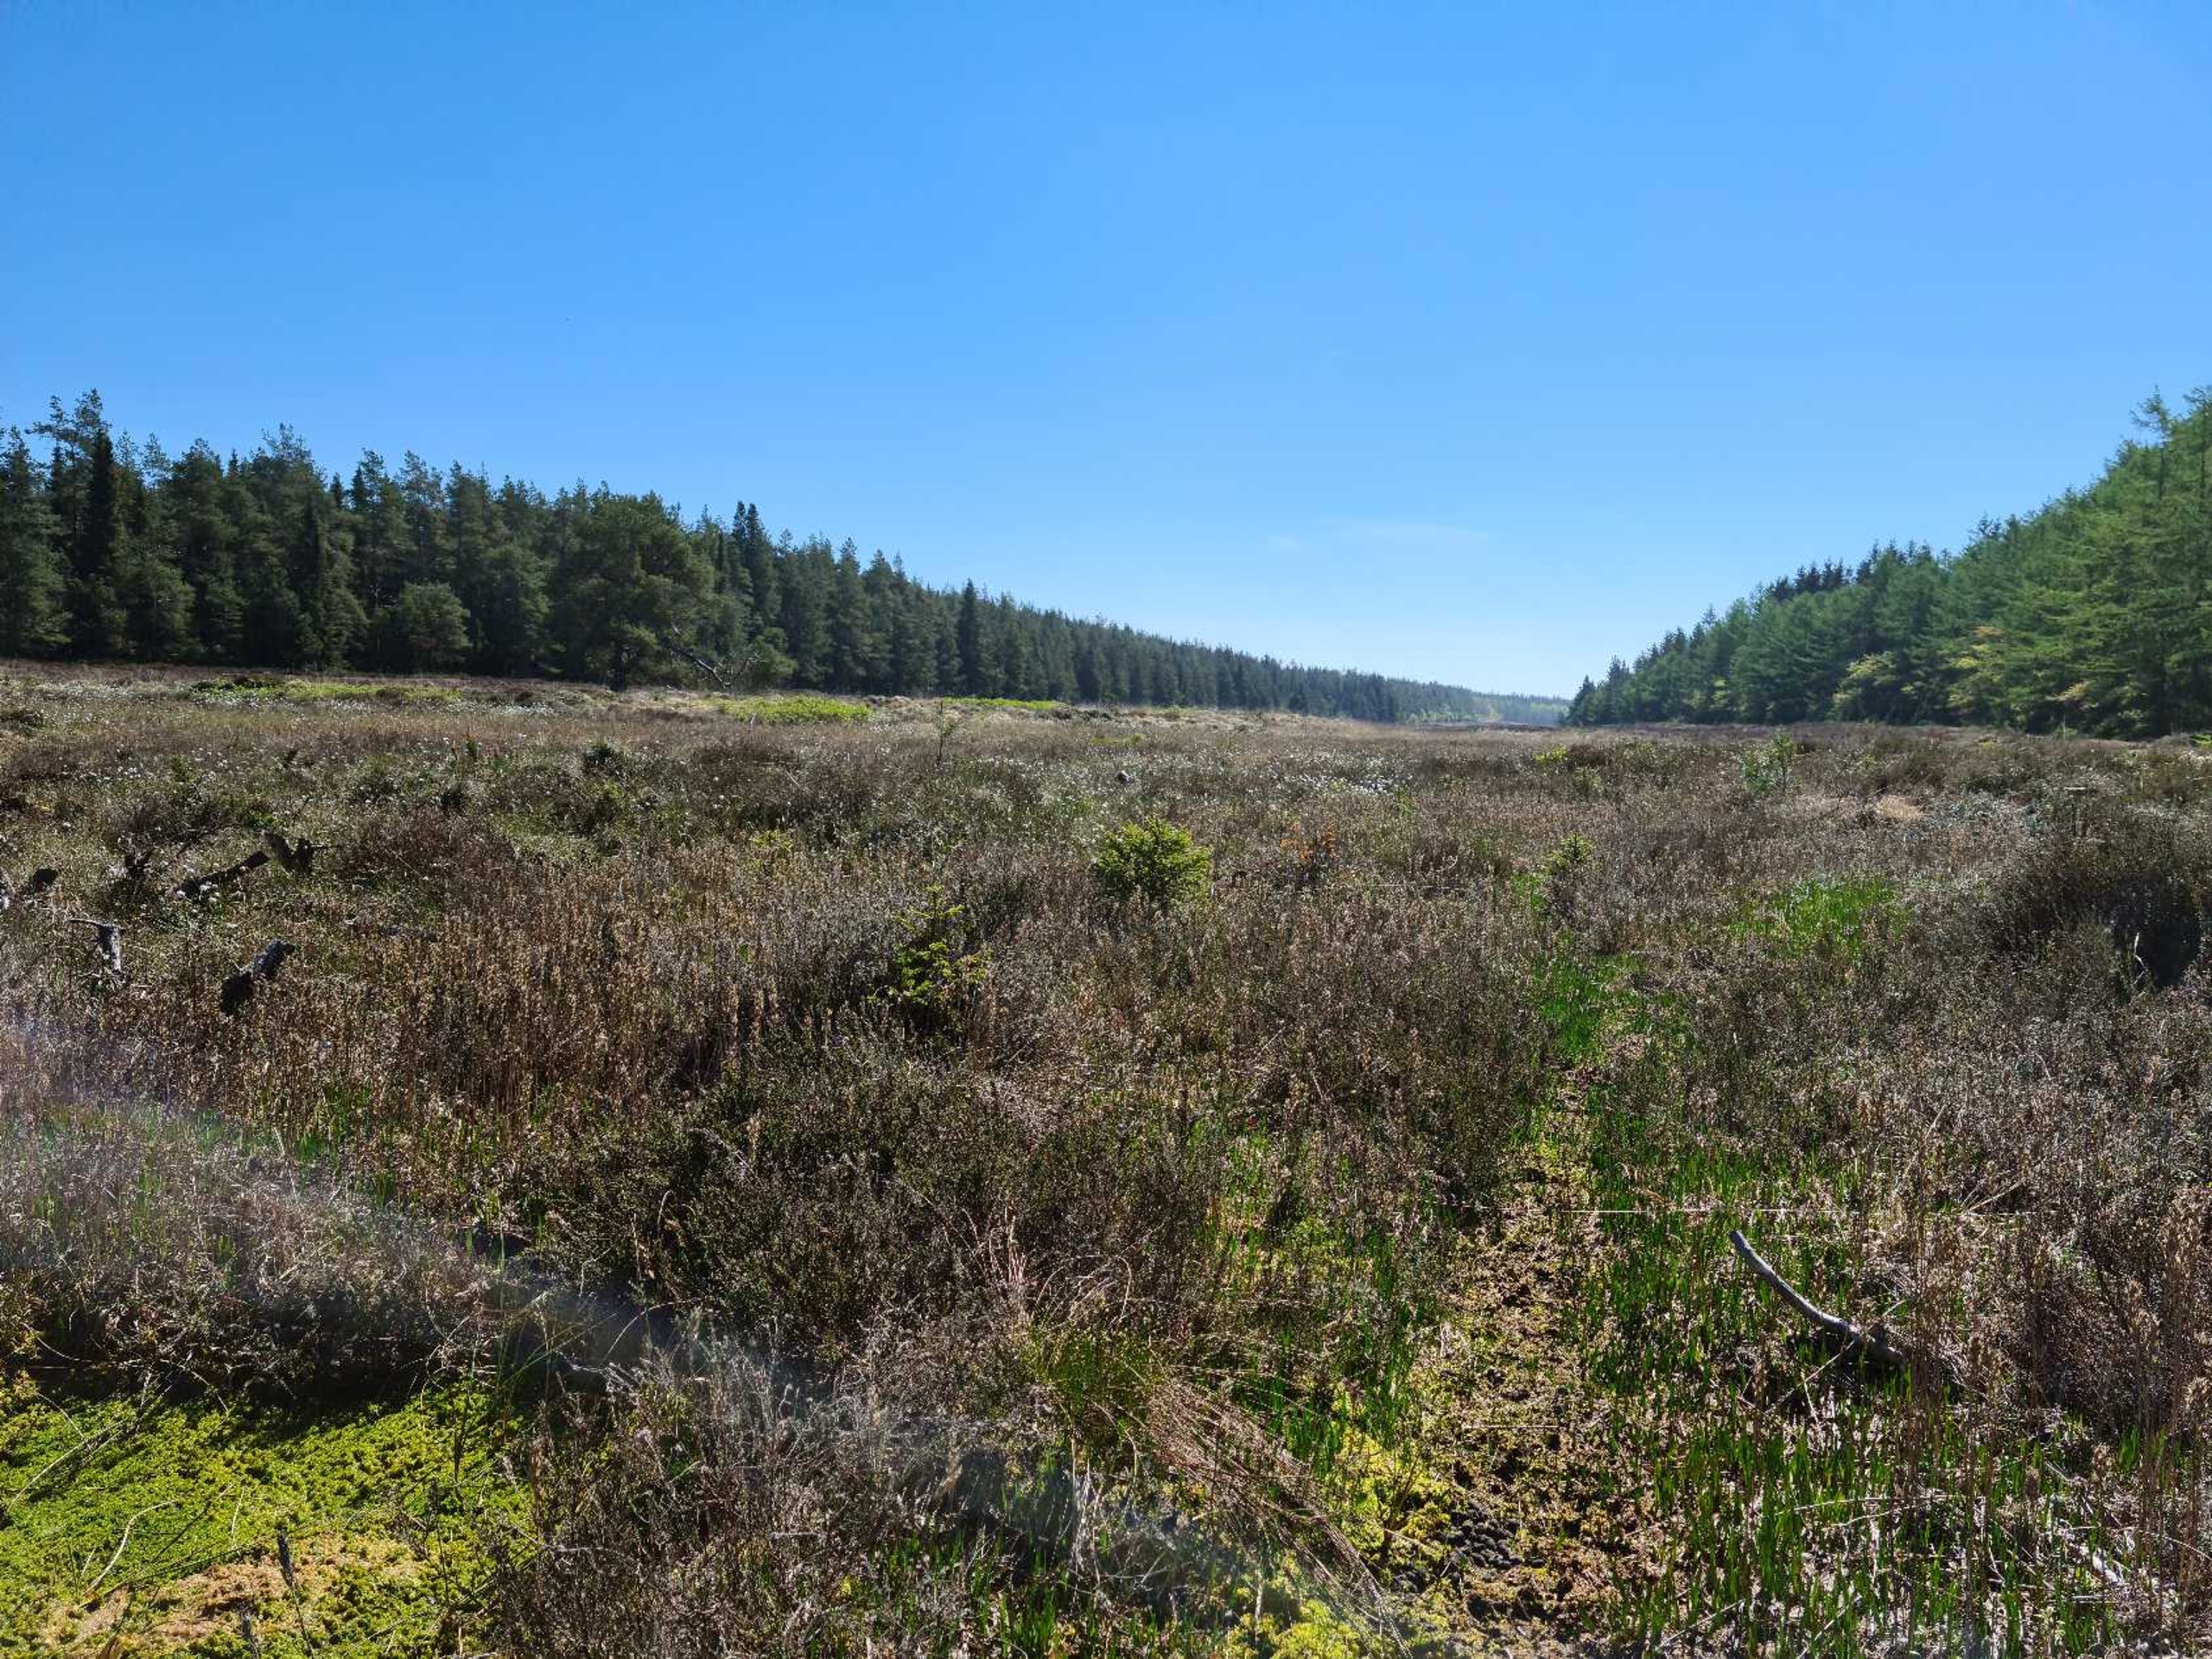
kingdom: Plantae
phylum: Tracheophyta
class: Magnoliopsida
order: Caryophyllales
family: Droseraceae
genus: Drosera
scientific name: Drosera rotundifolia
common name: Rundbladet soldug
